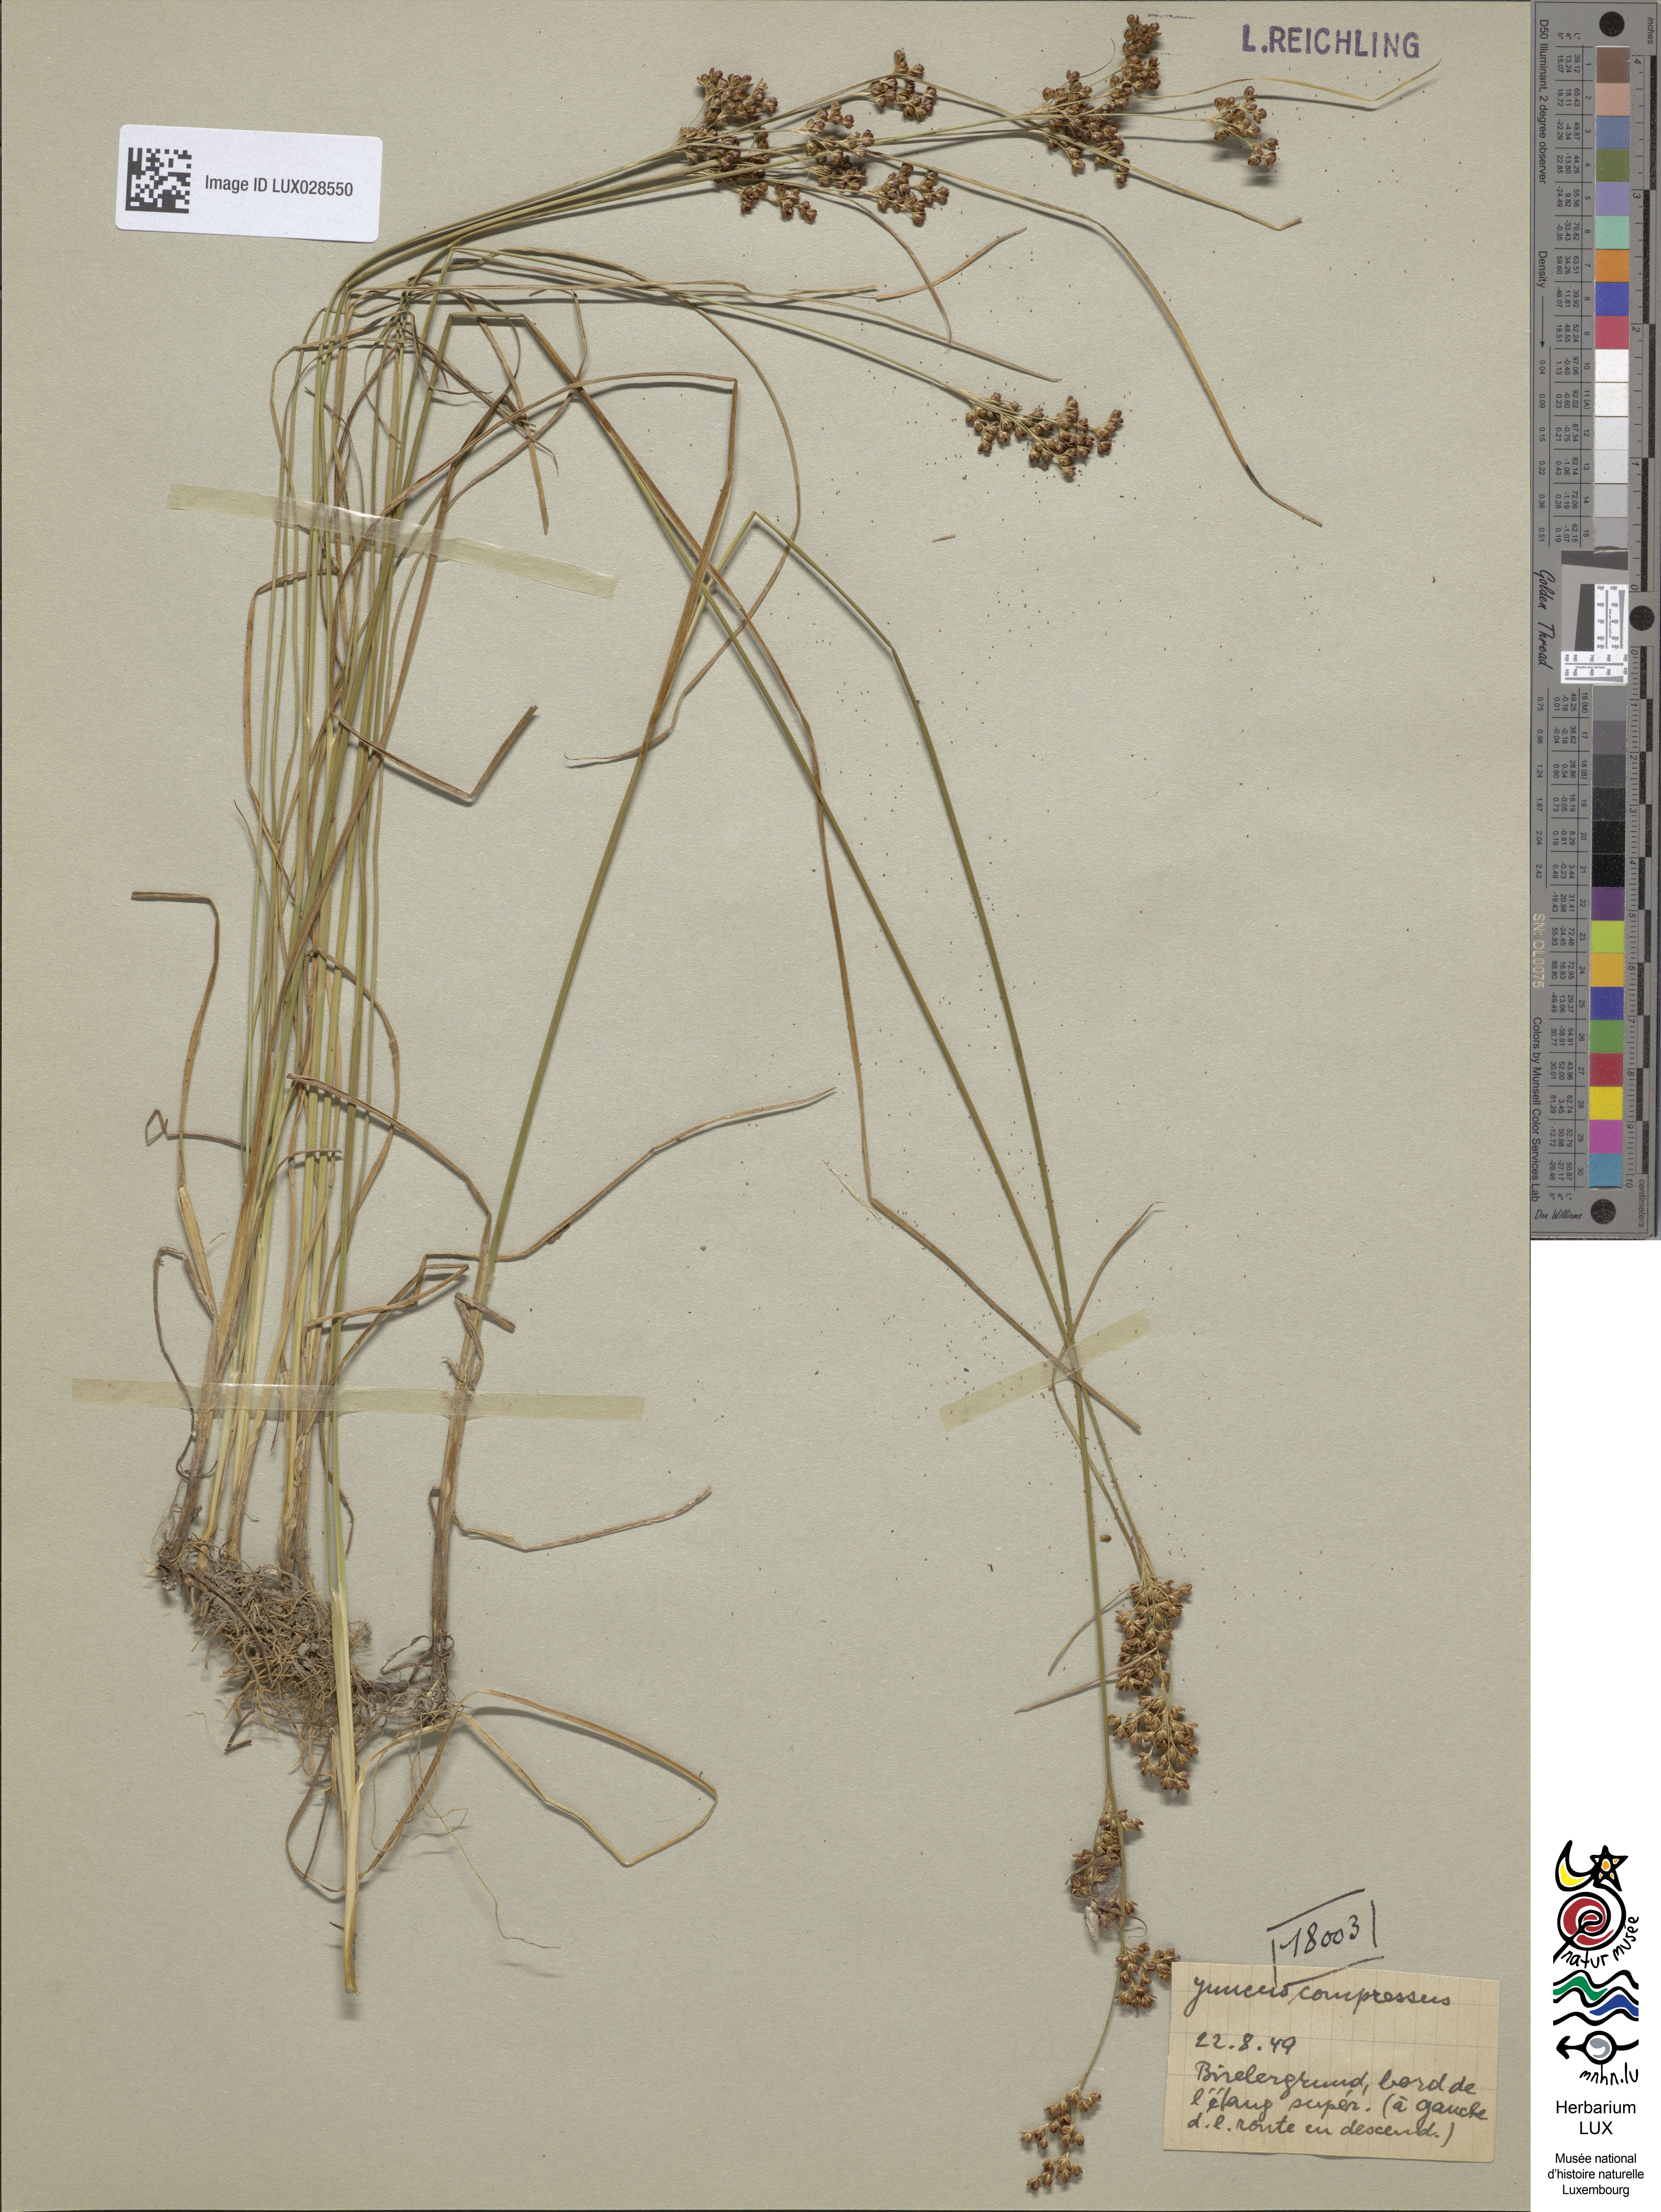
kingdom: Plantae
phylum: Tracheophyta
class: Liliopsida
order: Poales
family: Juncaceae
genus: Juncus
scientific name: Juncus compressus
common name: Round-fruited rush
